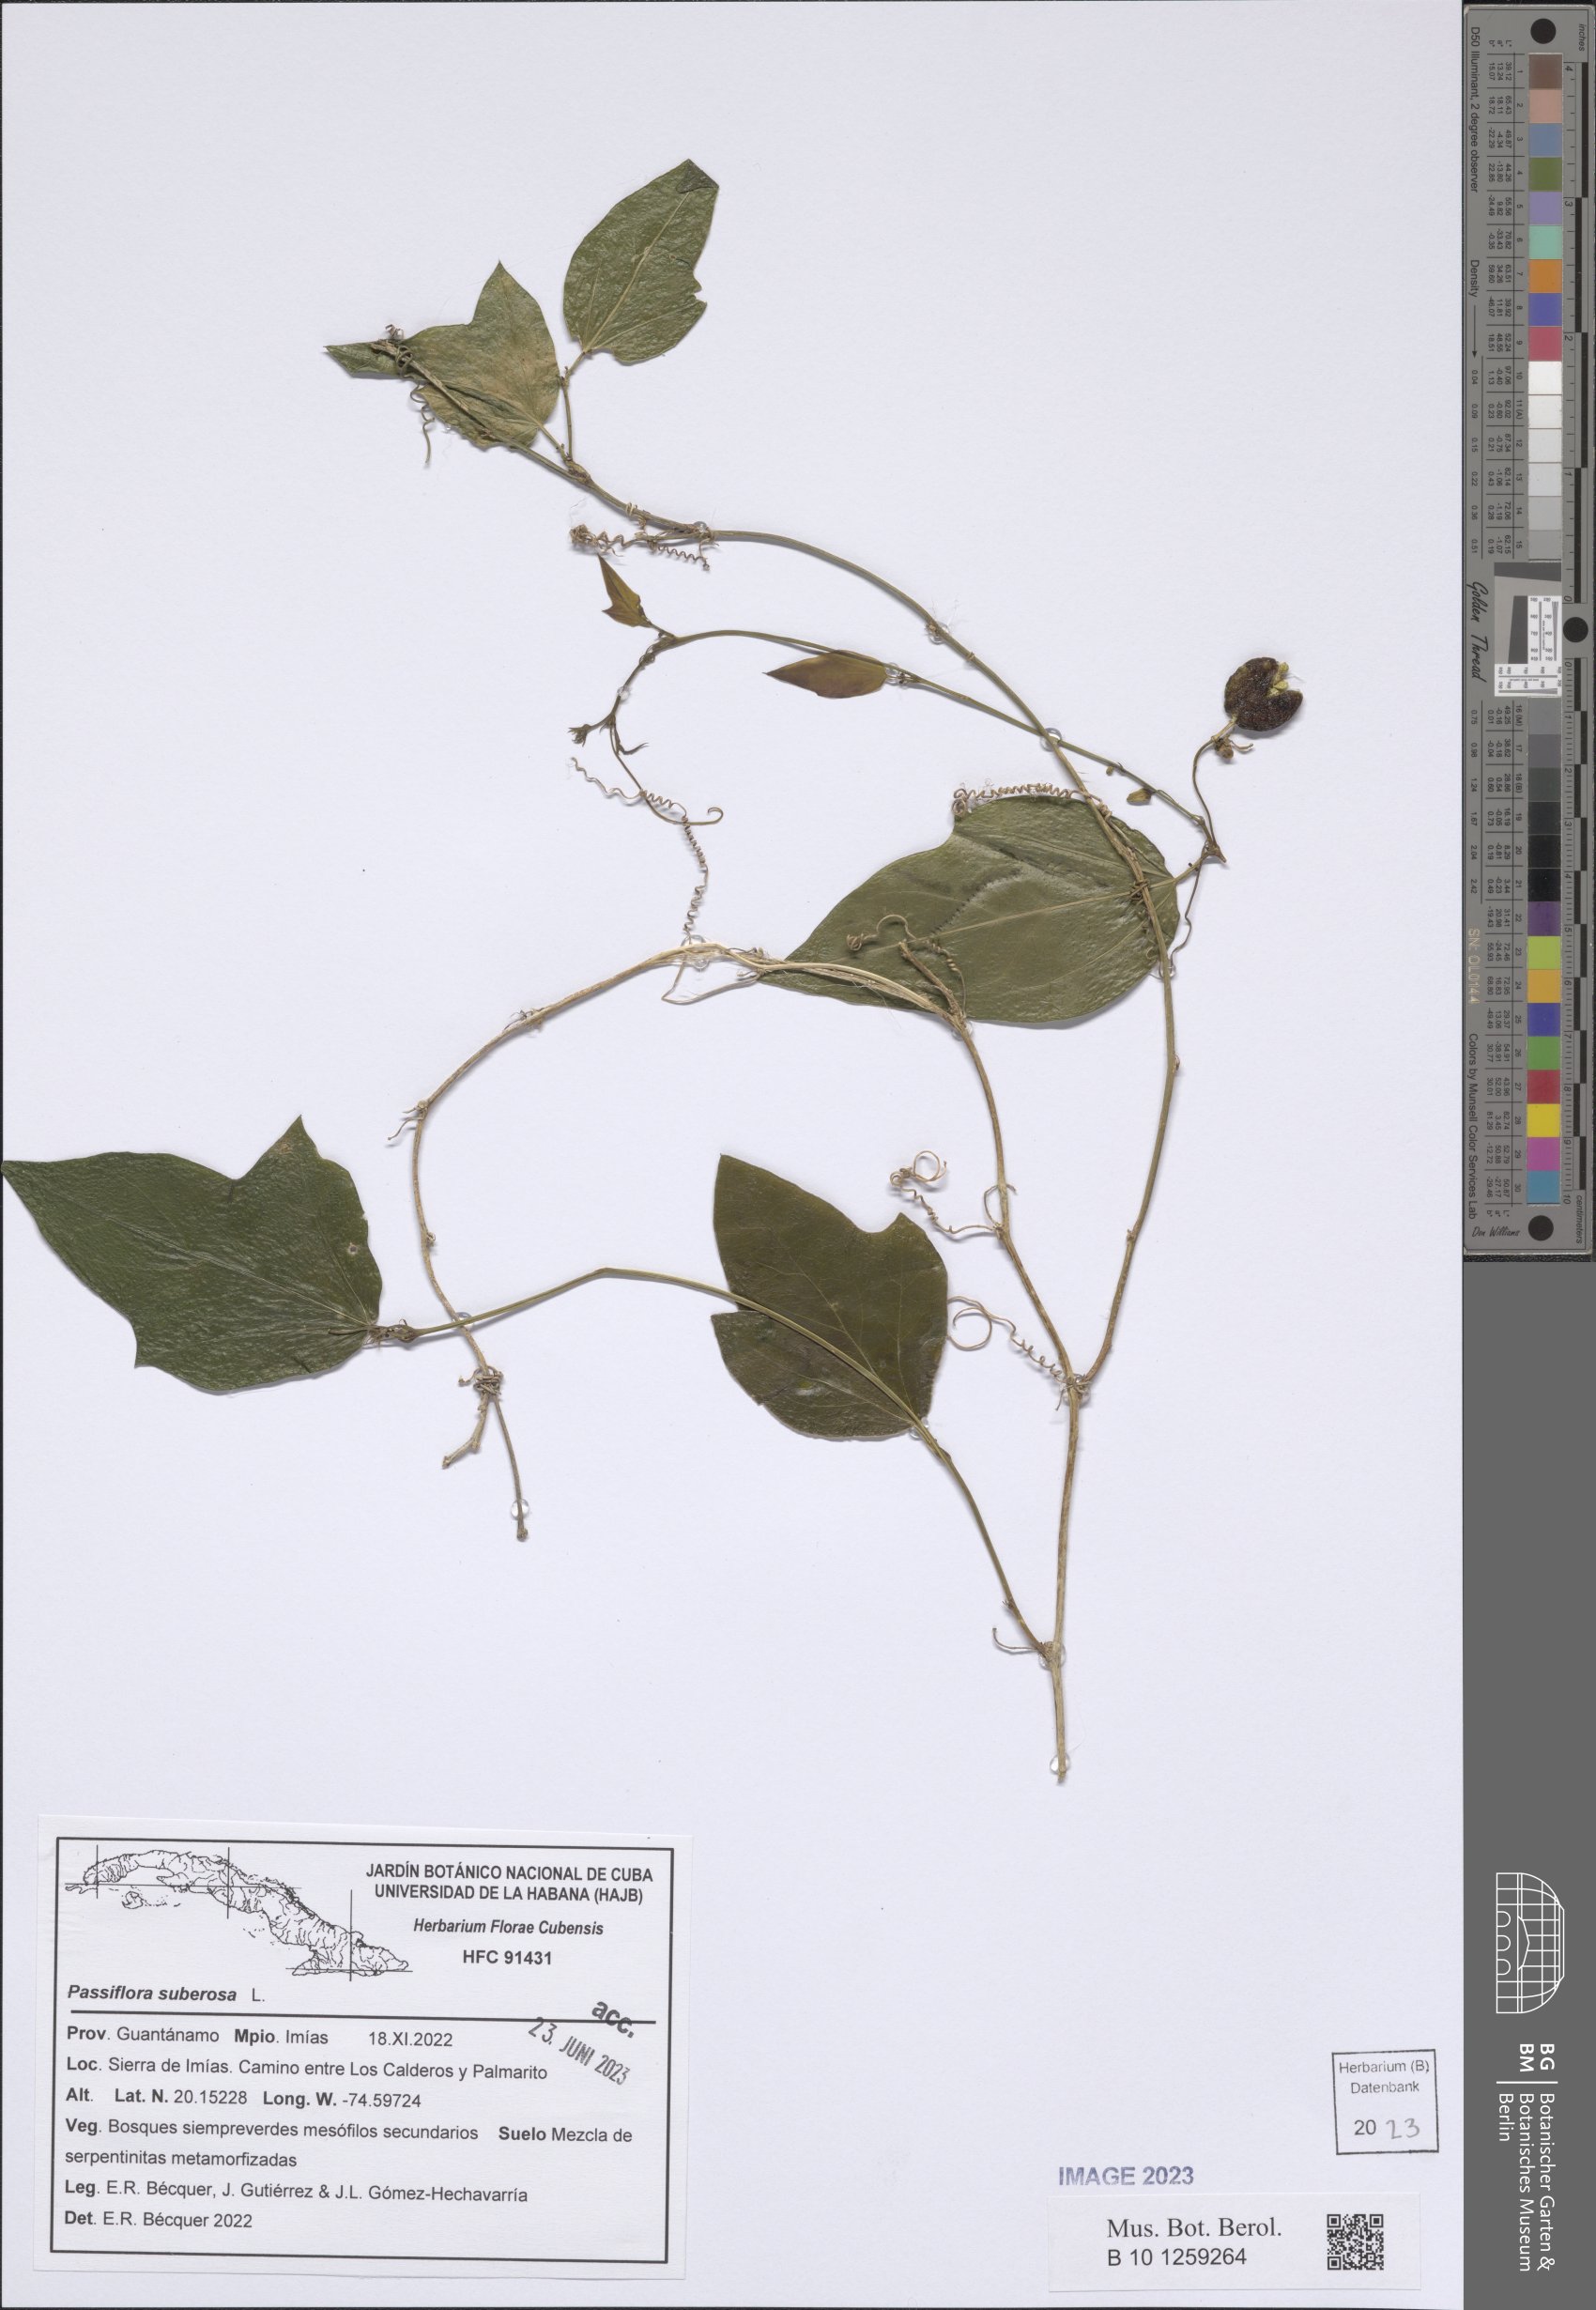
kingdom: Plantae
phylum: Tracheophyta
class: Magnoliopsida
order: Malpighiales
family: Passifloraceae
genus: Passiflora
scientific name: Passiflora suberosa
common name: Wild passionfruit
